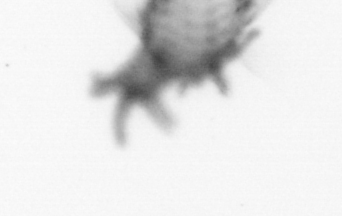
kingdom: Animalia
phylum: Annelida
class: Polychaeta
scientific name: Polychaeta
